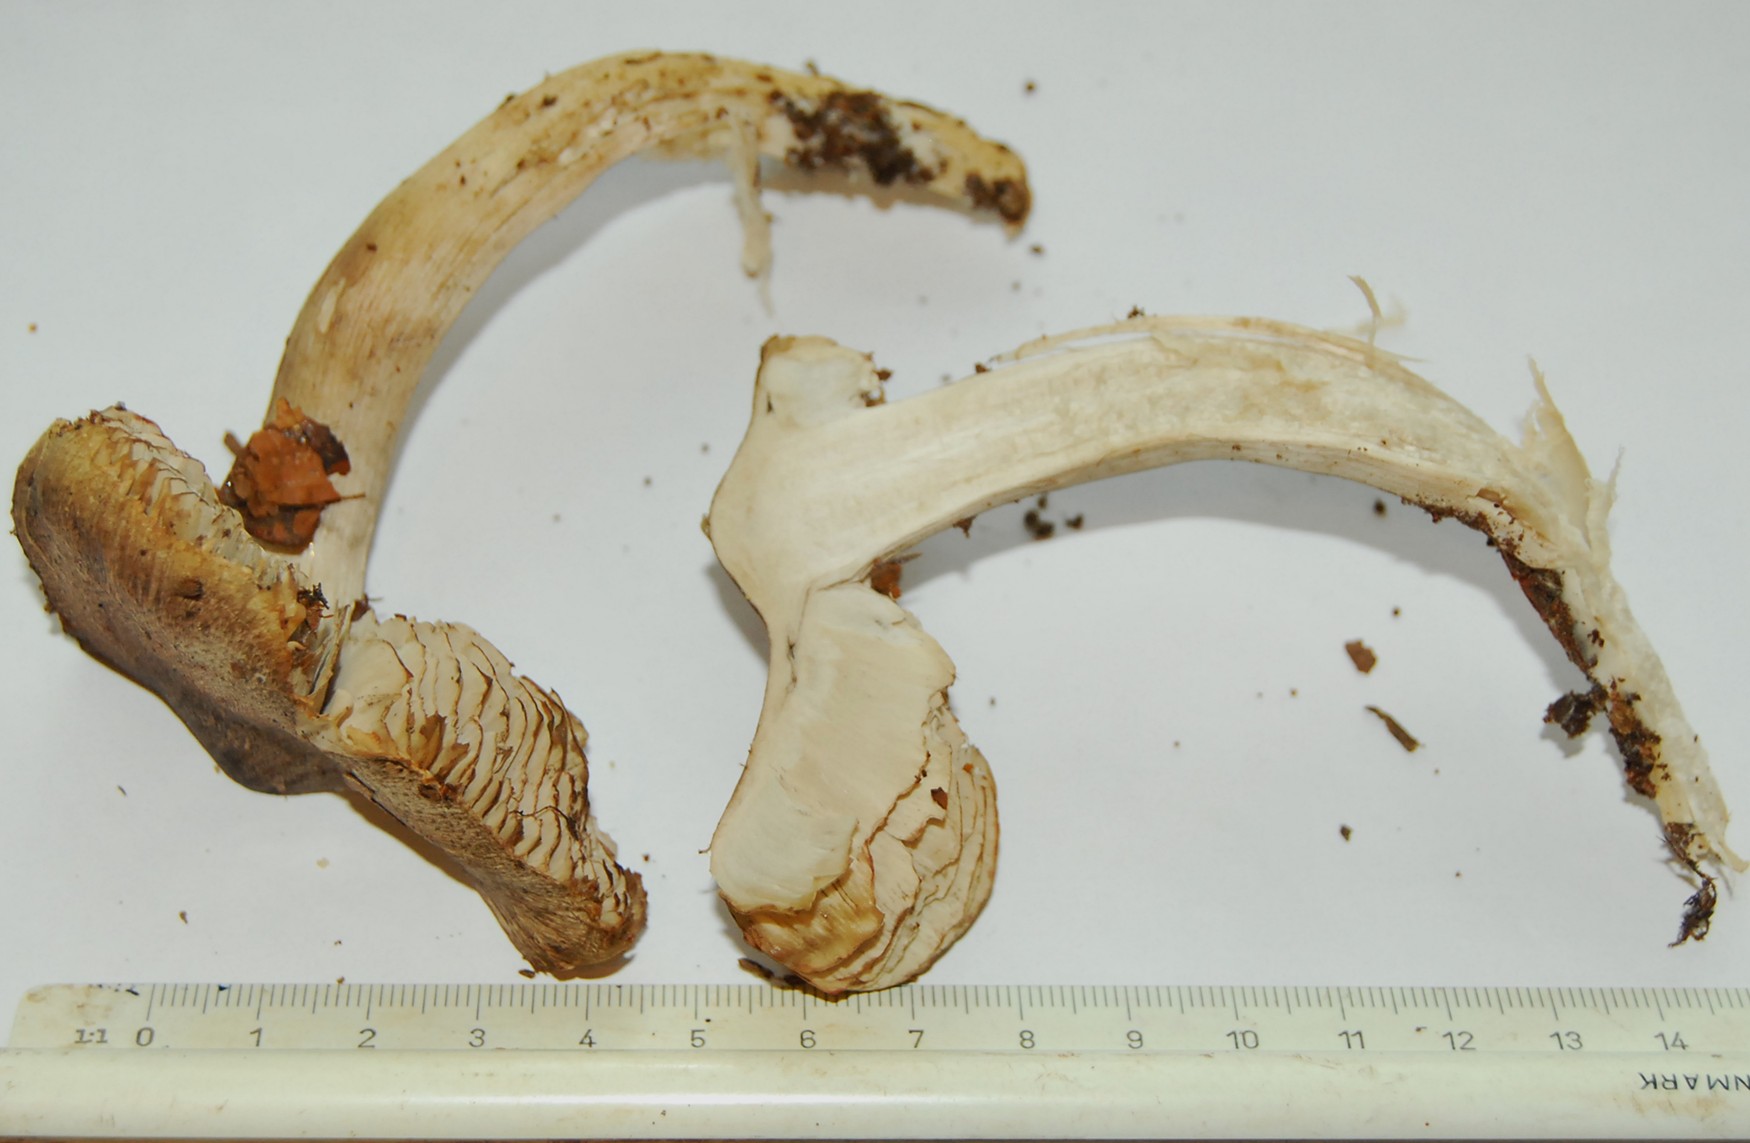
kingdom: Fungi
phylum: Basidiomycota
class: Agaricomycetes
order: Agaricales
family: Tricholomataceae
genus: Tricholoma
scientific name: Tricholoma sciodes
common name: stribet ridderhat
